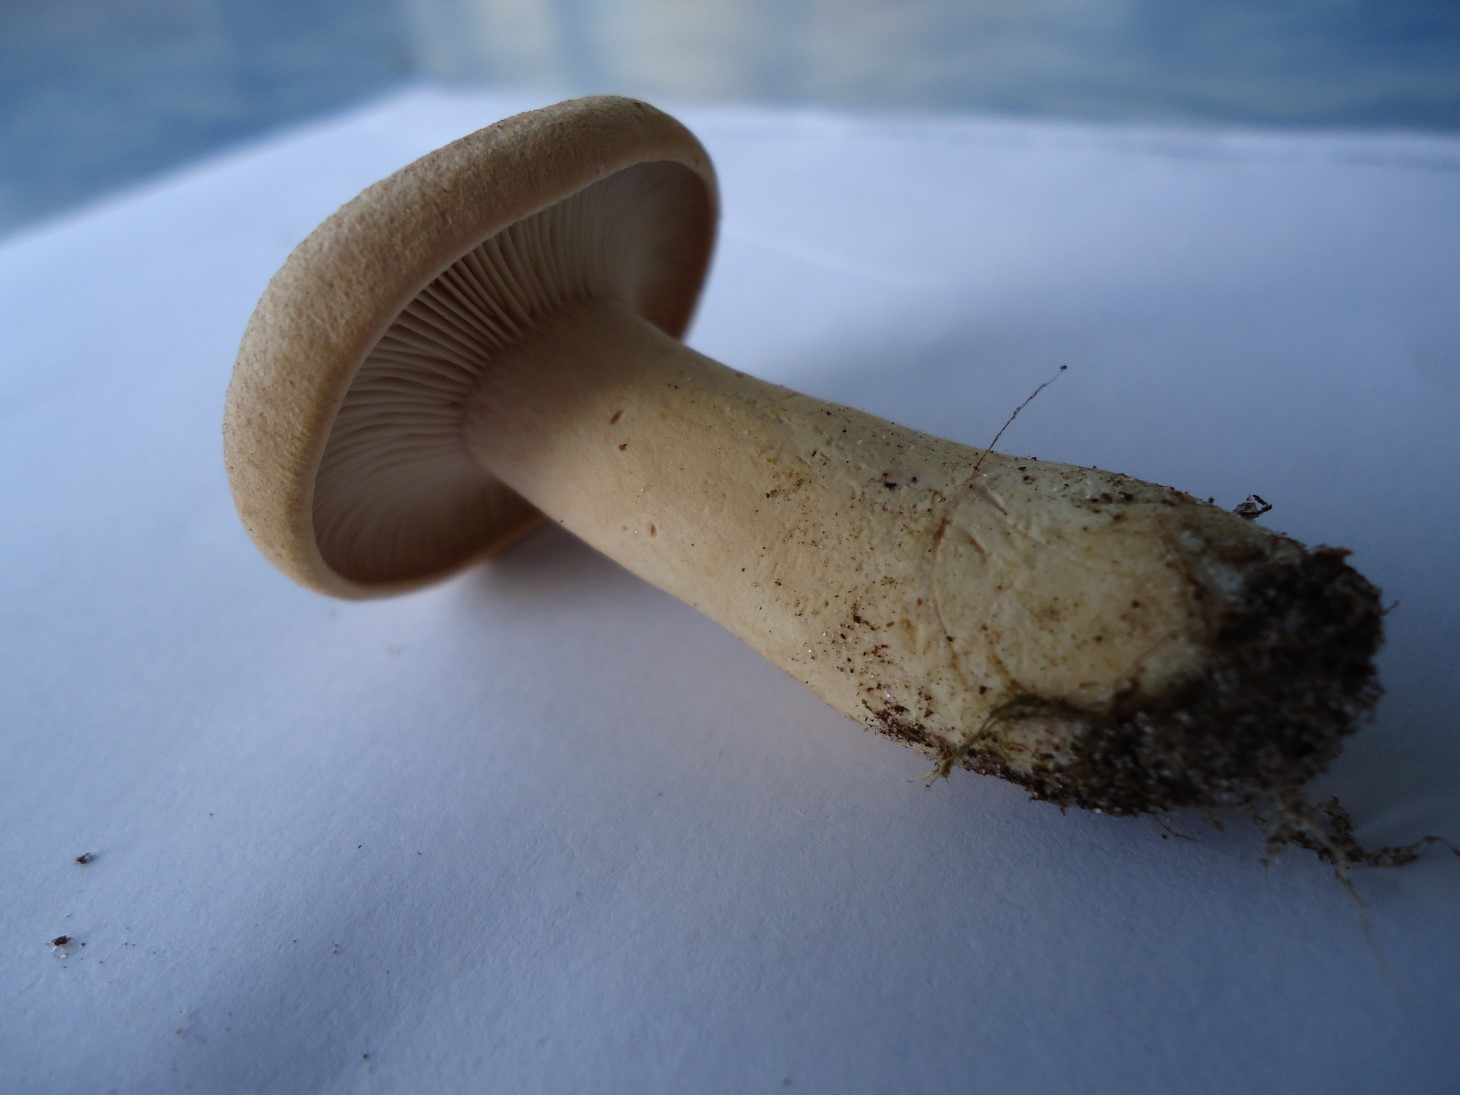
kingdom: Fungi
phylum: Basidiomycota
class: Agaricomycetes
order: Russulales
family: Russulaceae
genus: Lactarius
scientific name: Lactarius helvus
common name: mose-mælkehat
